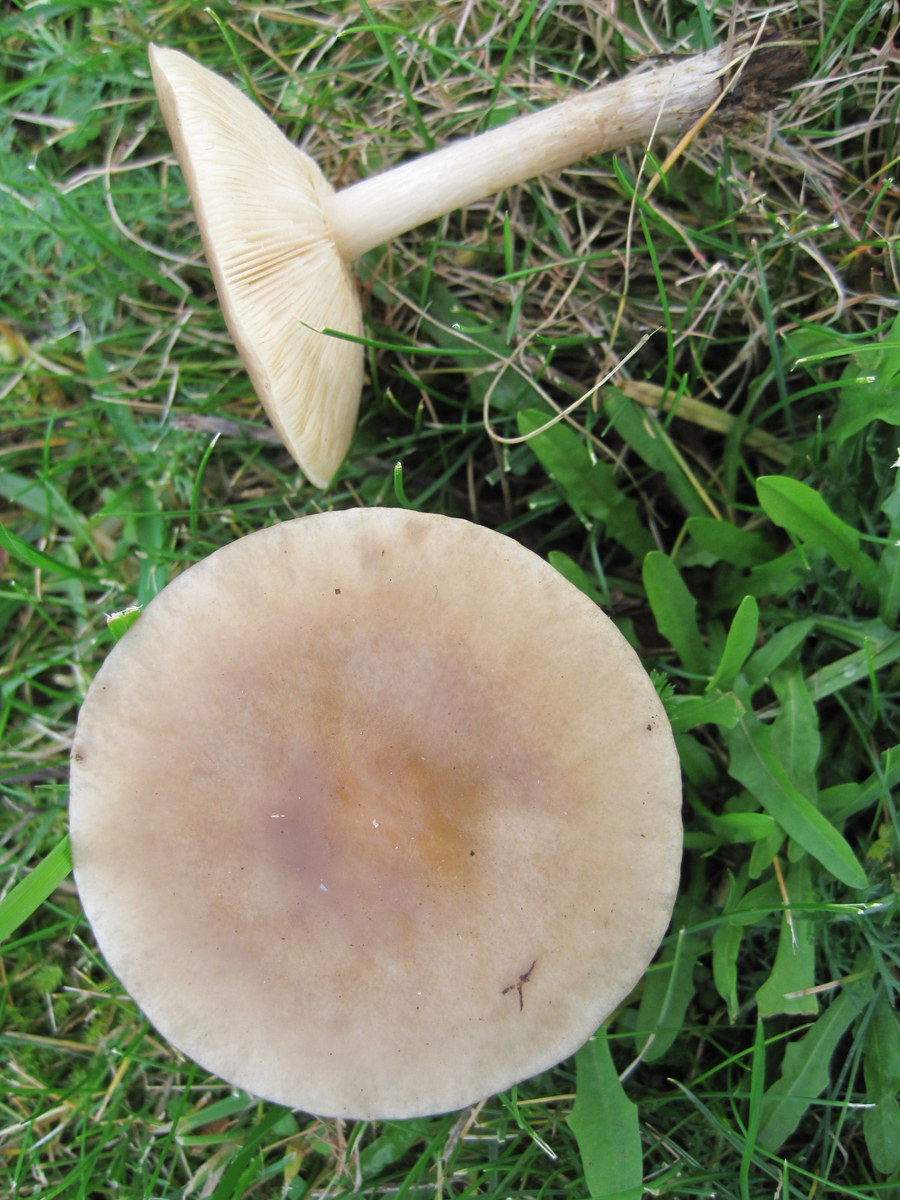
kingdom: Fungi
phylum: Basidiomycota
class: Agaricomycetes
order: Agaricales
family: Tricholomataceae
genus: Melanoleuca
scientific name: Melanoleuca polioleuca
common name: almindelig munkehat
